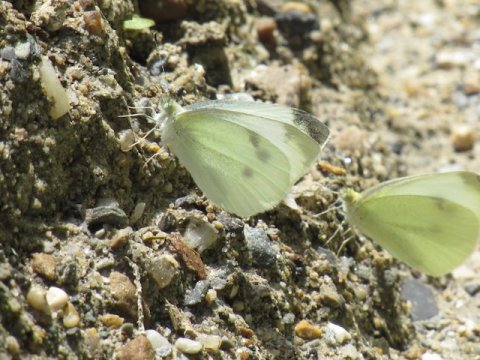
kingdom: Animalia
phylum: Arthropoda
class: Insecta
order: Lepidoptera
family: Pieridae
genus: Pieris
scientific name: Pieris rapae
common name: Cabbage White
